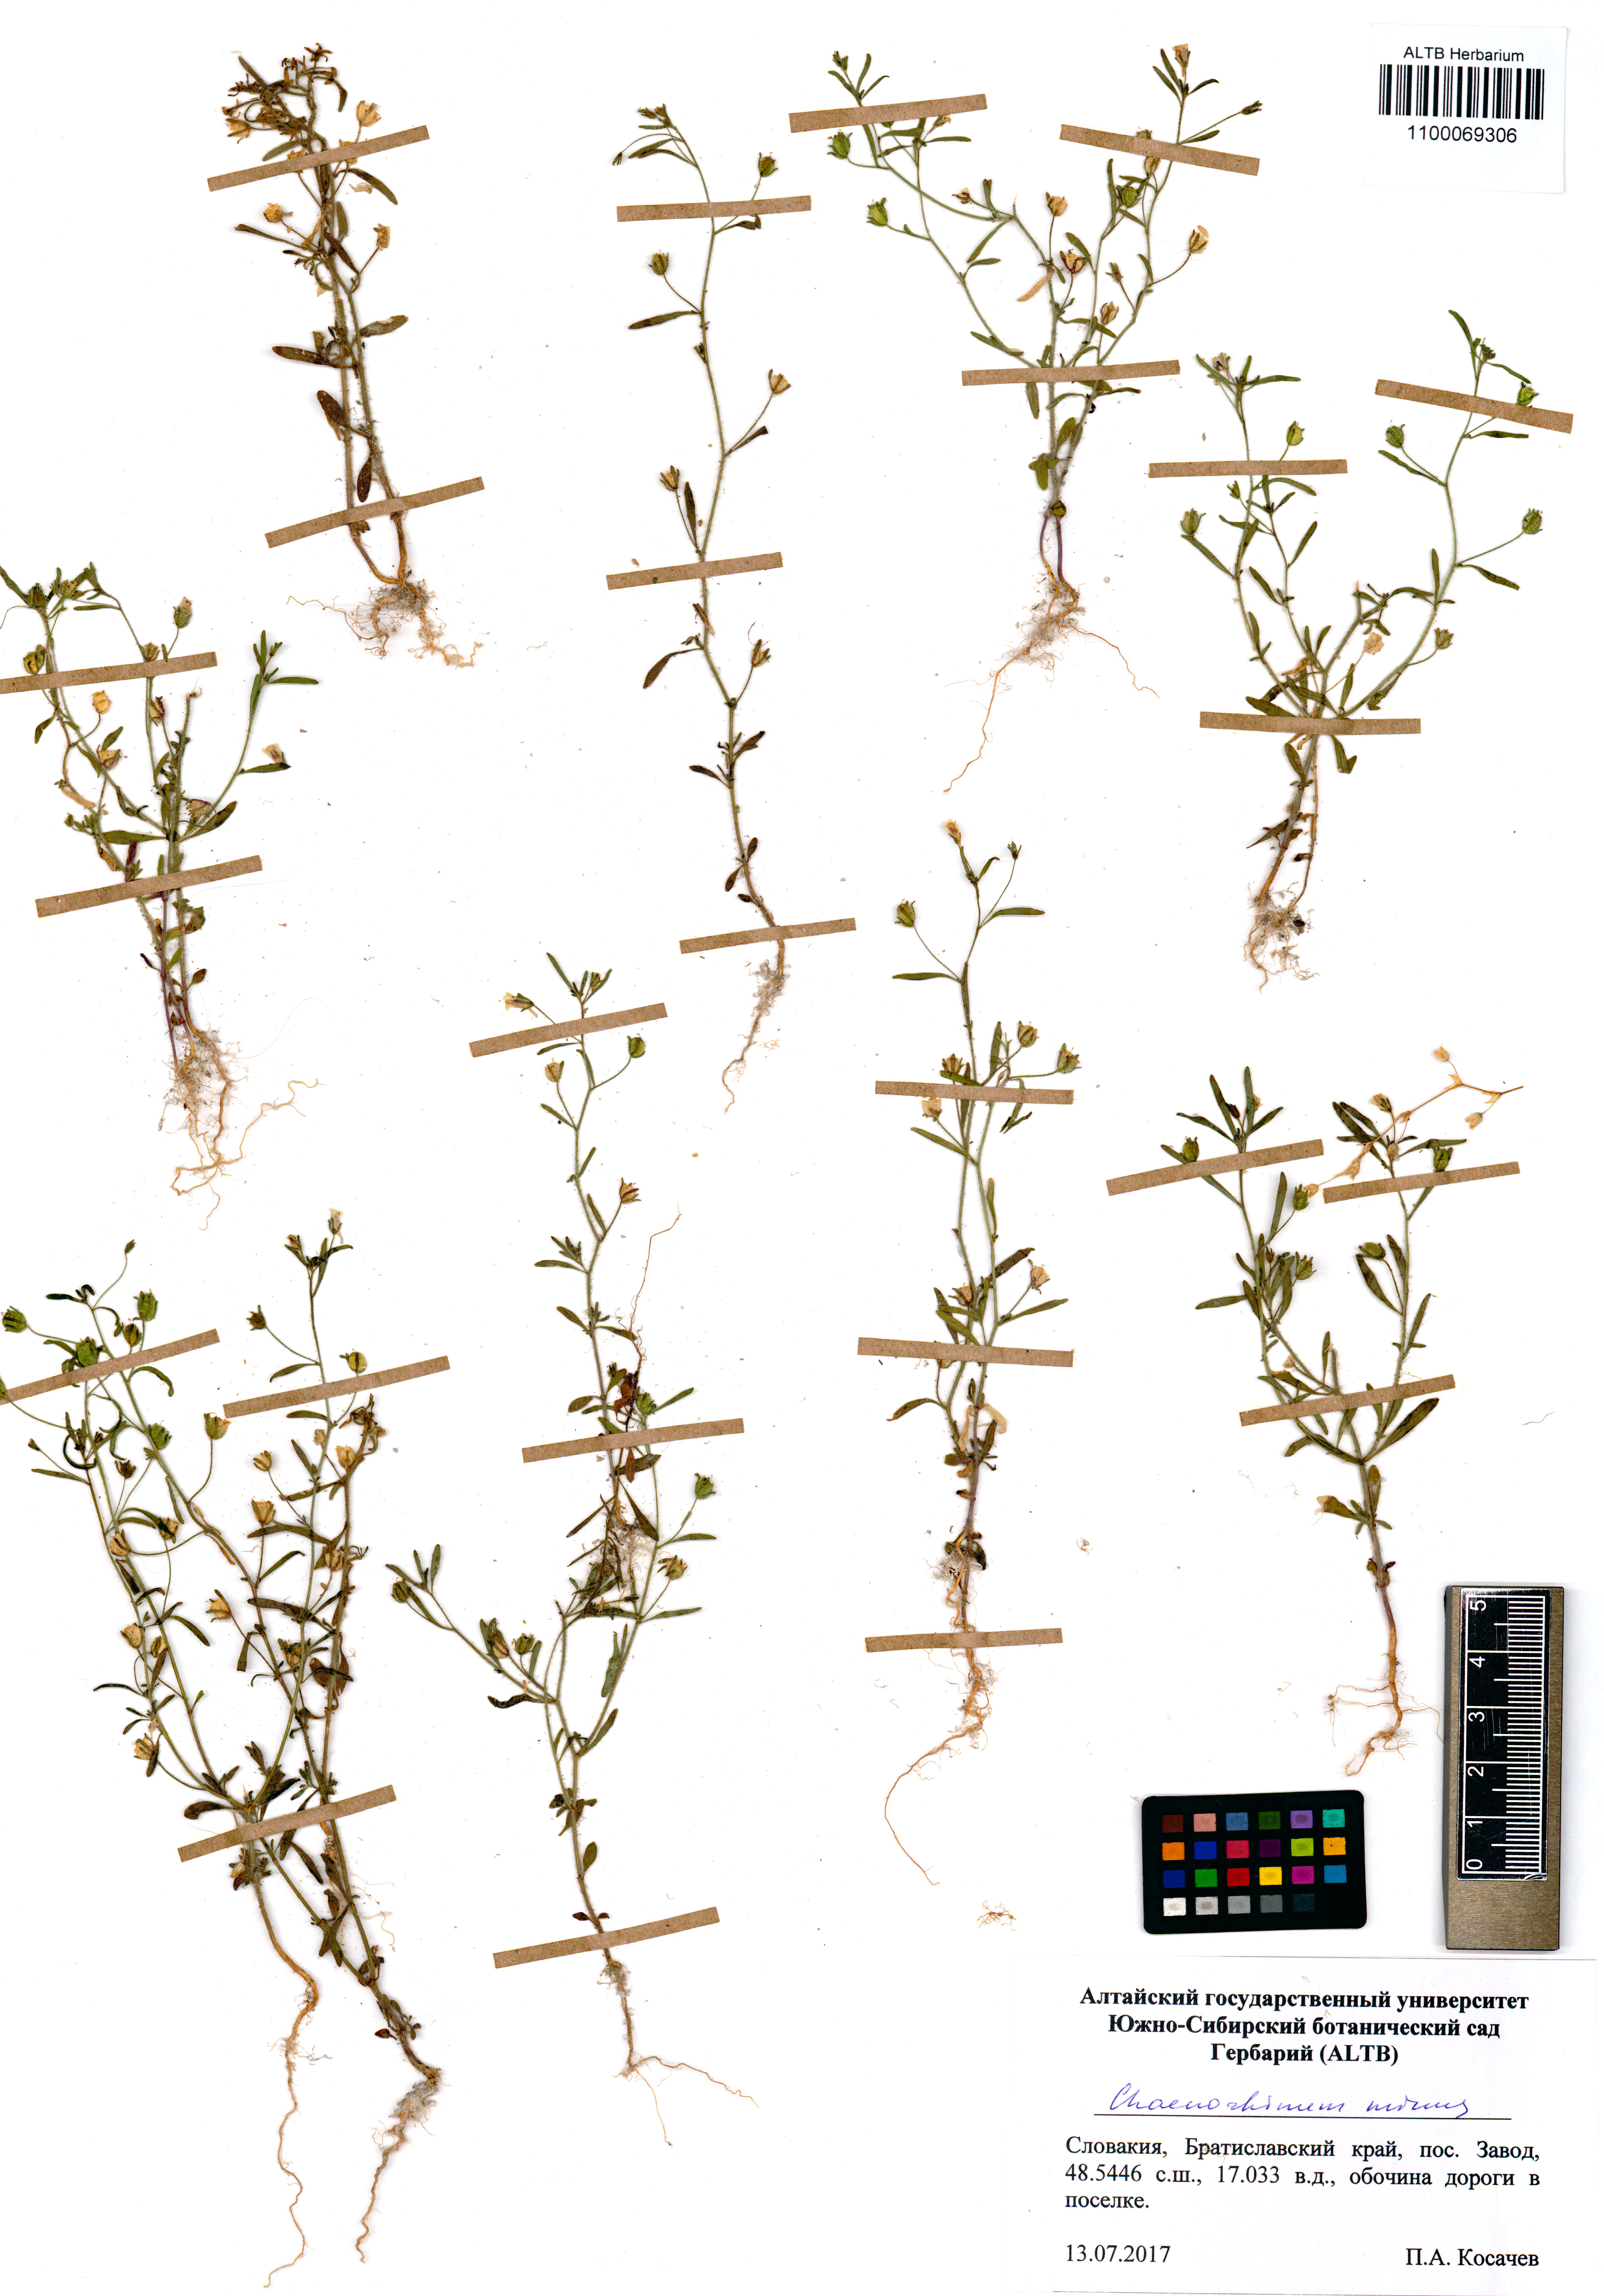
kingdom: Plantae
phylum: Tracheophyta
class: Magnoliopsida
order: Lamiales
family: Plantaginaceae
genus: Chaenorhinum
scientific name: Chaenorhinum minus
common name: Dwarf snapdragon
